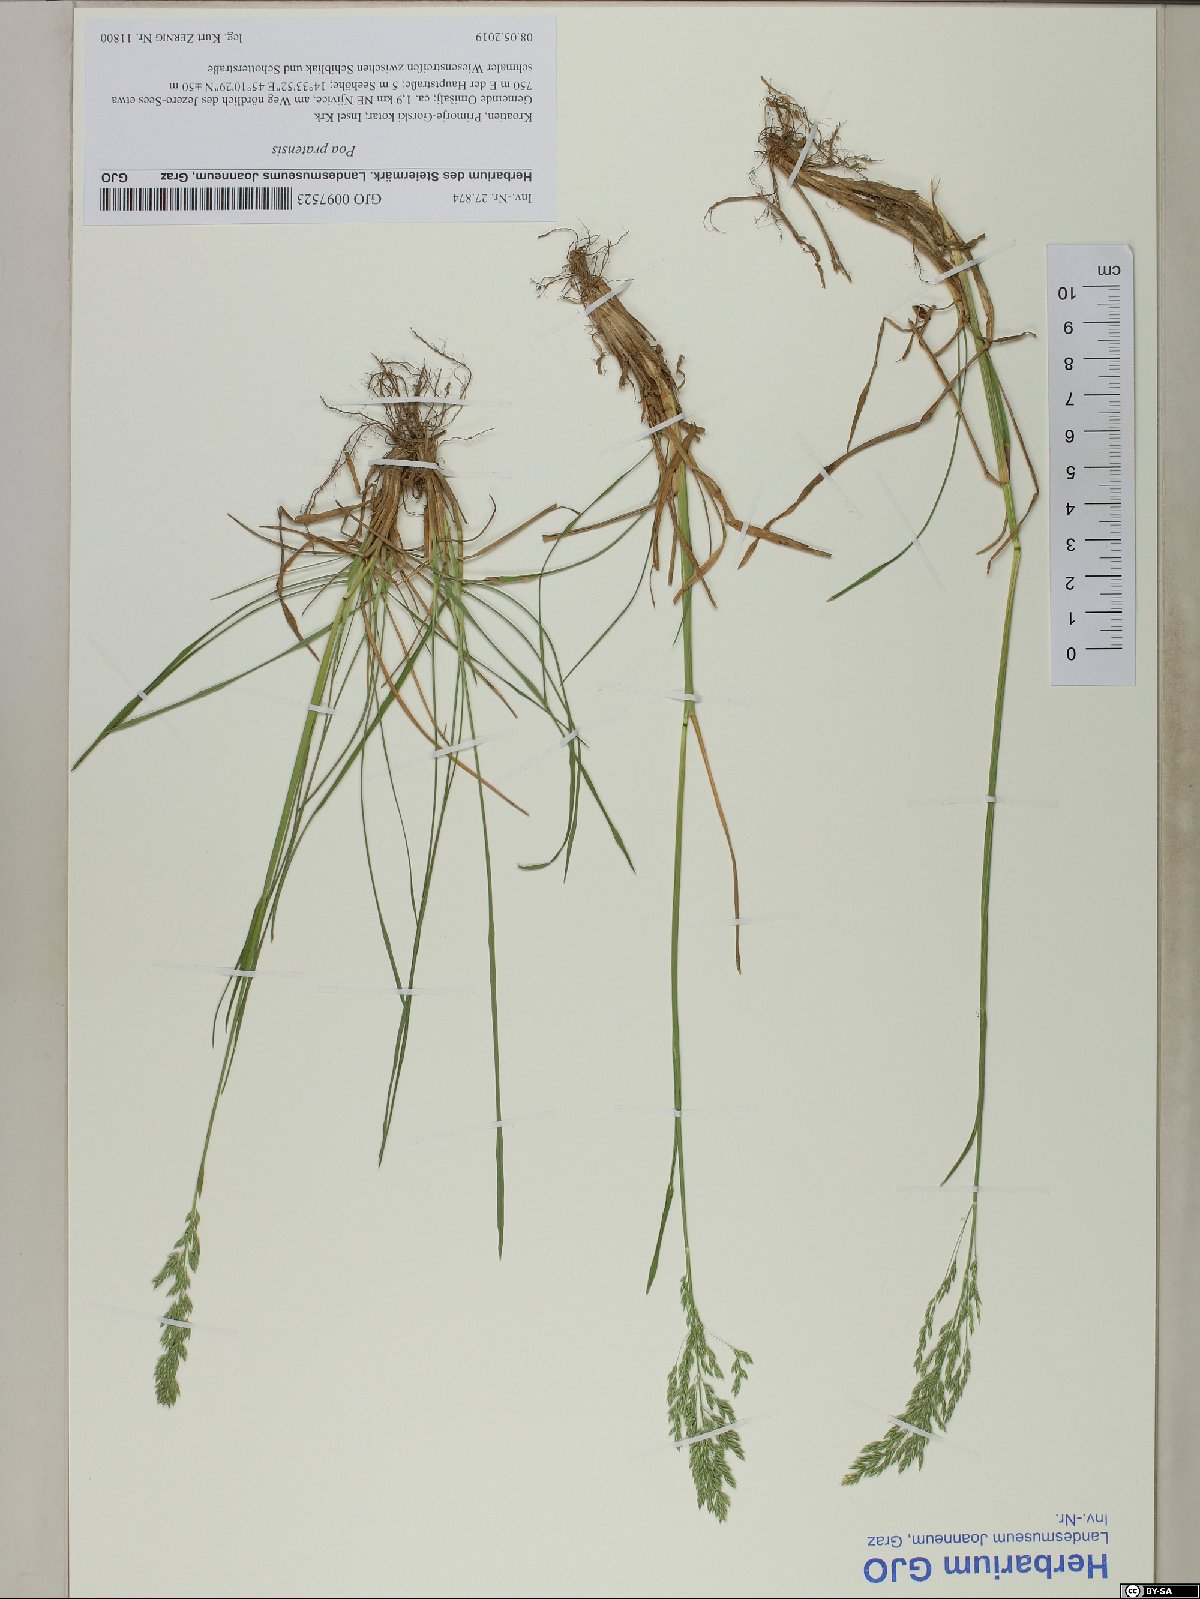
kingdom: Plantae
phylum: Tracheophyta
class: Liliopsida
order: Poales
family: Poaceae
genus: Poa
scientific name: Poa pratensis
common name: Kentucky bluegrass
